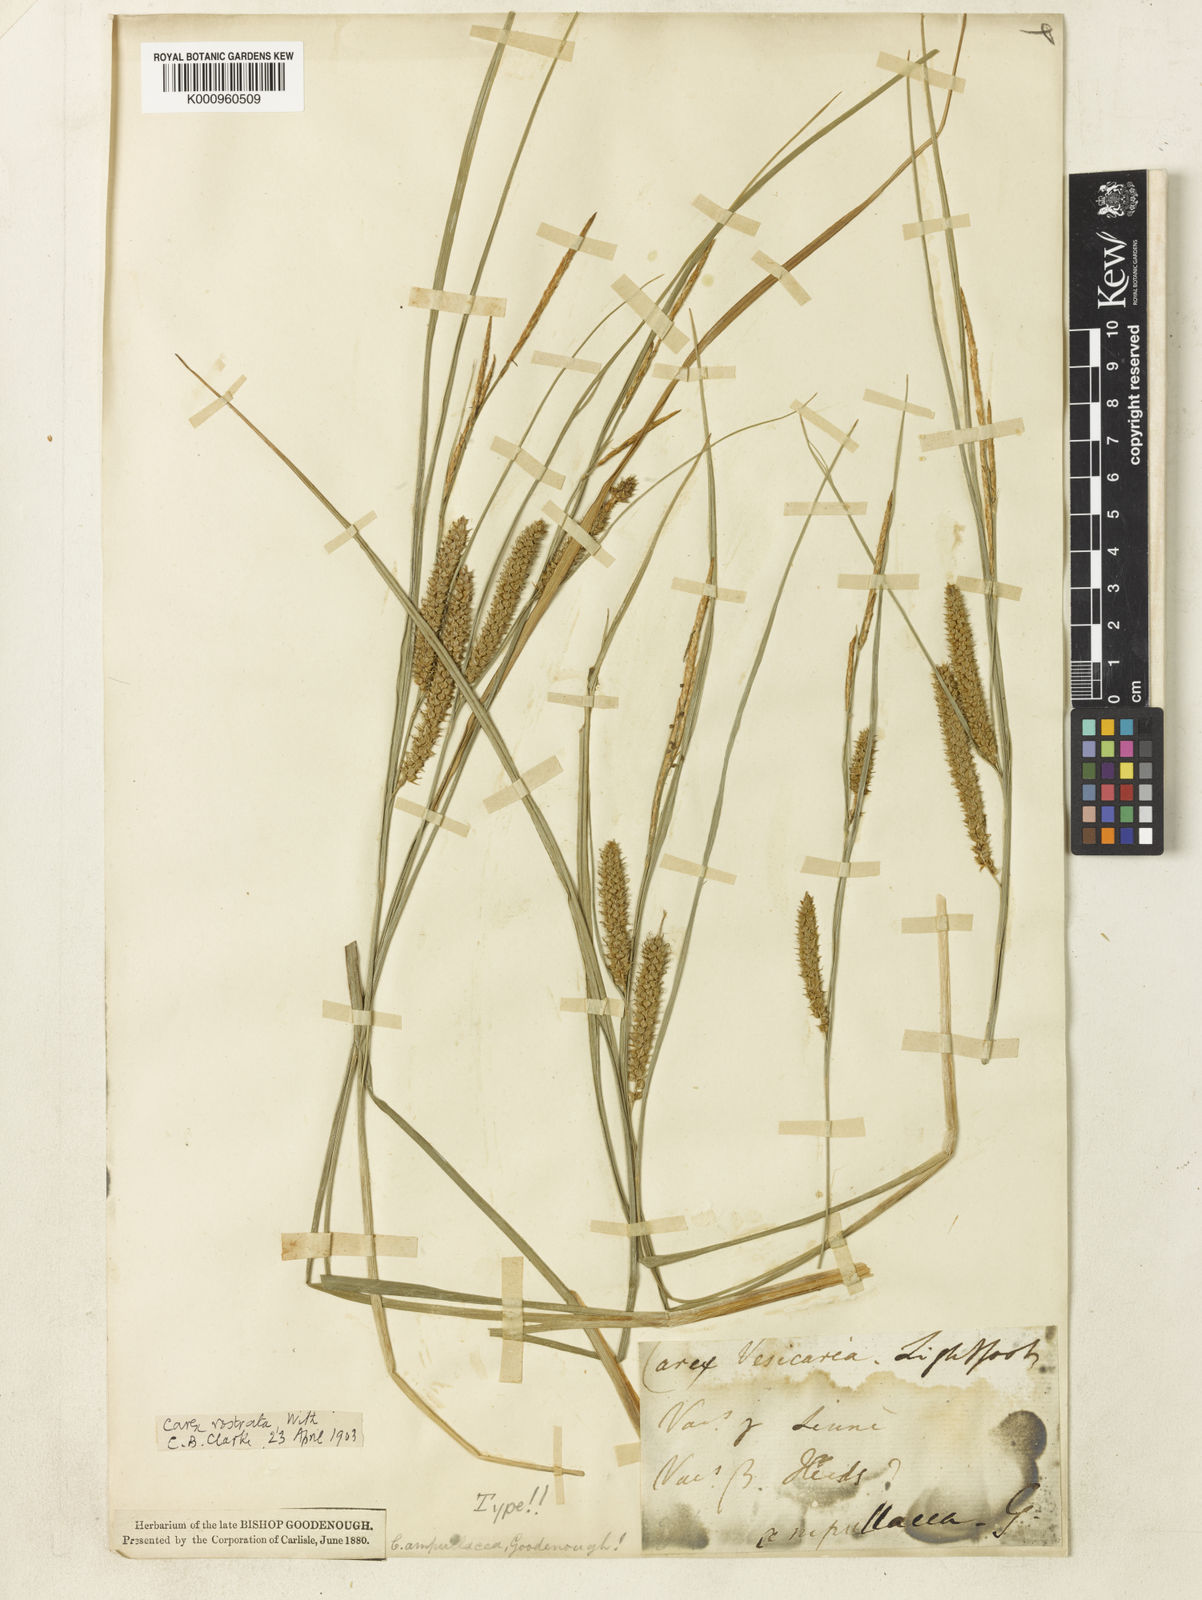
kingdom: Plantae
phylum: Tracheophyta
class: Liliopsida
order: Poales
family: Cyperaceae
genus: Carex
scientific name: Carex rostrata
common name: Bottle sedge
